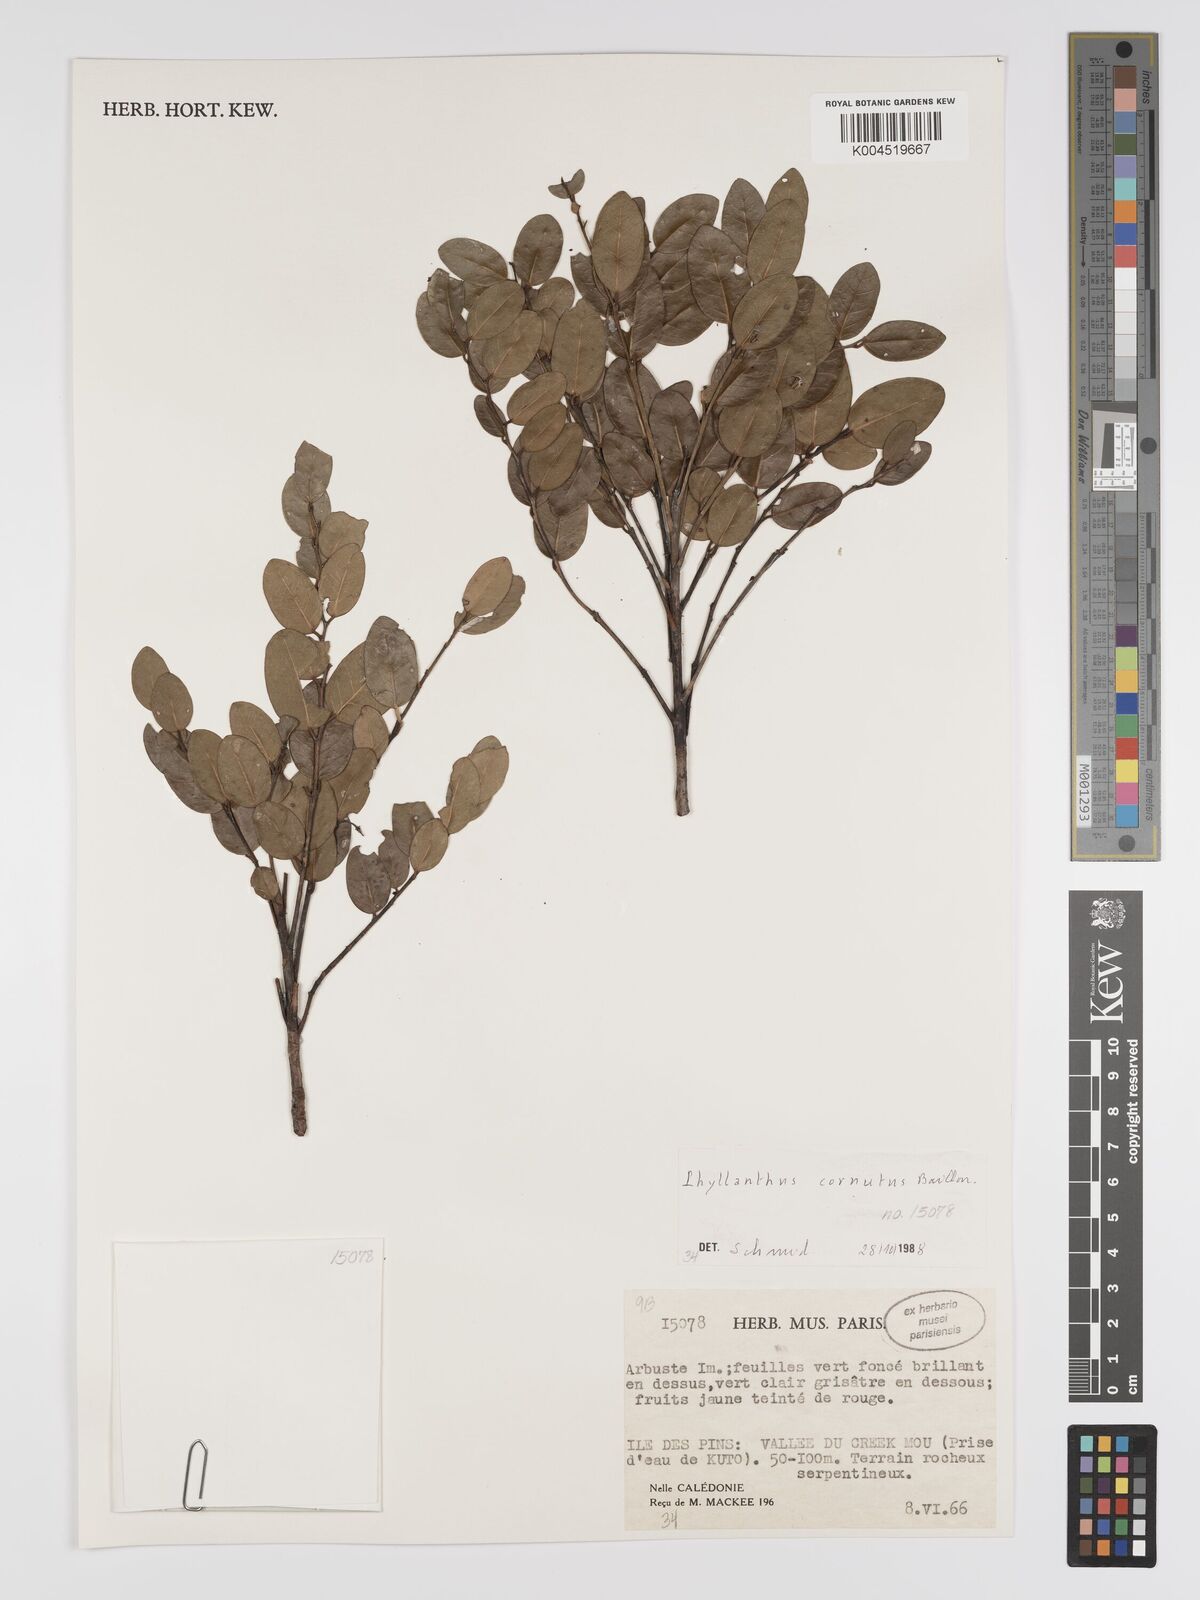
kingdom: Plantae
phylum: Tracheophyta
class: Magnoliopsida
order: Malpighiales
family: Phyllanthaceae
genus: Phyllanthus
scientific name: Phyllanthus cornutus
